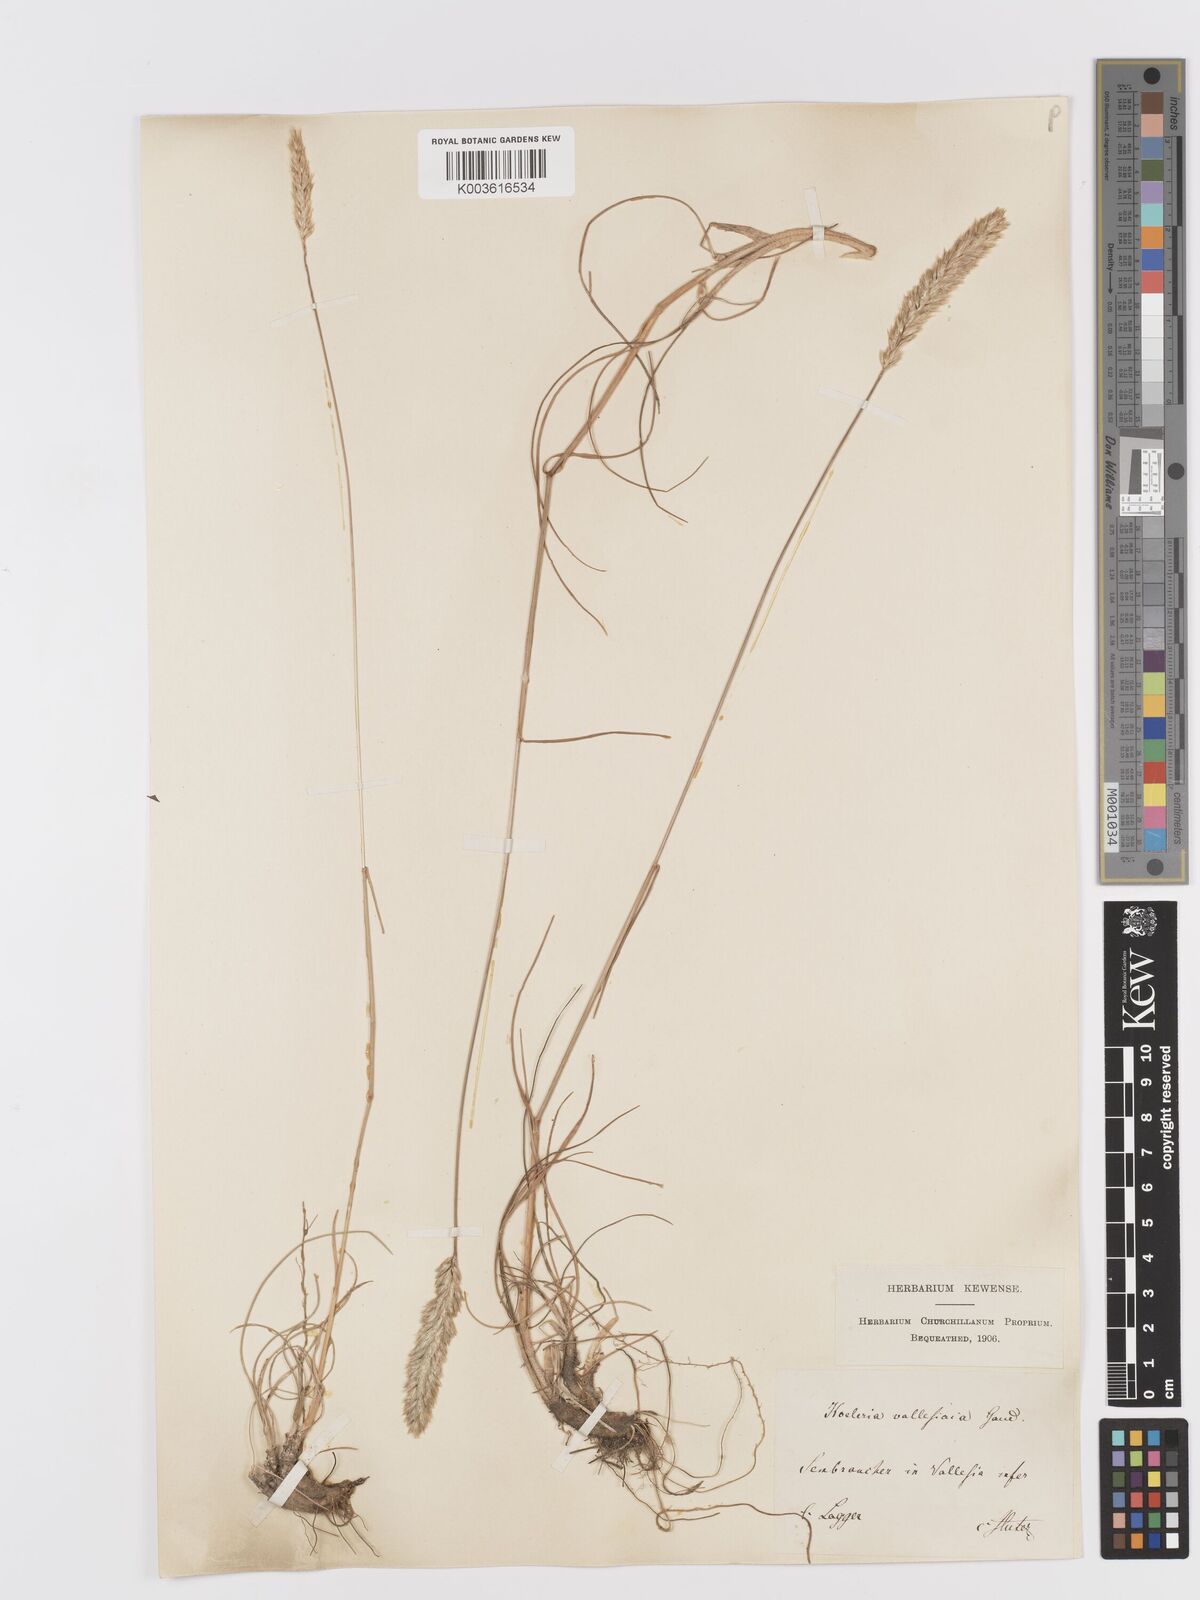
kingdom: Plantae
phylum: Tracheophyta
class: Liliopsida
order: Poales
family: Poaceae
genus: Koeleria
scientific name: Koeleria vallesiana
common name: Somerset hair-grass
